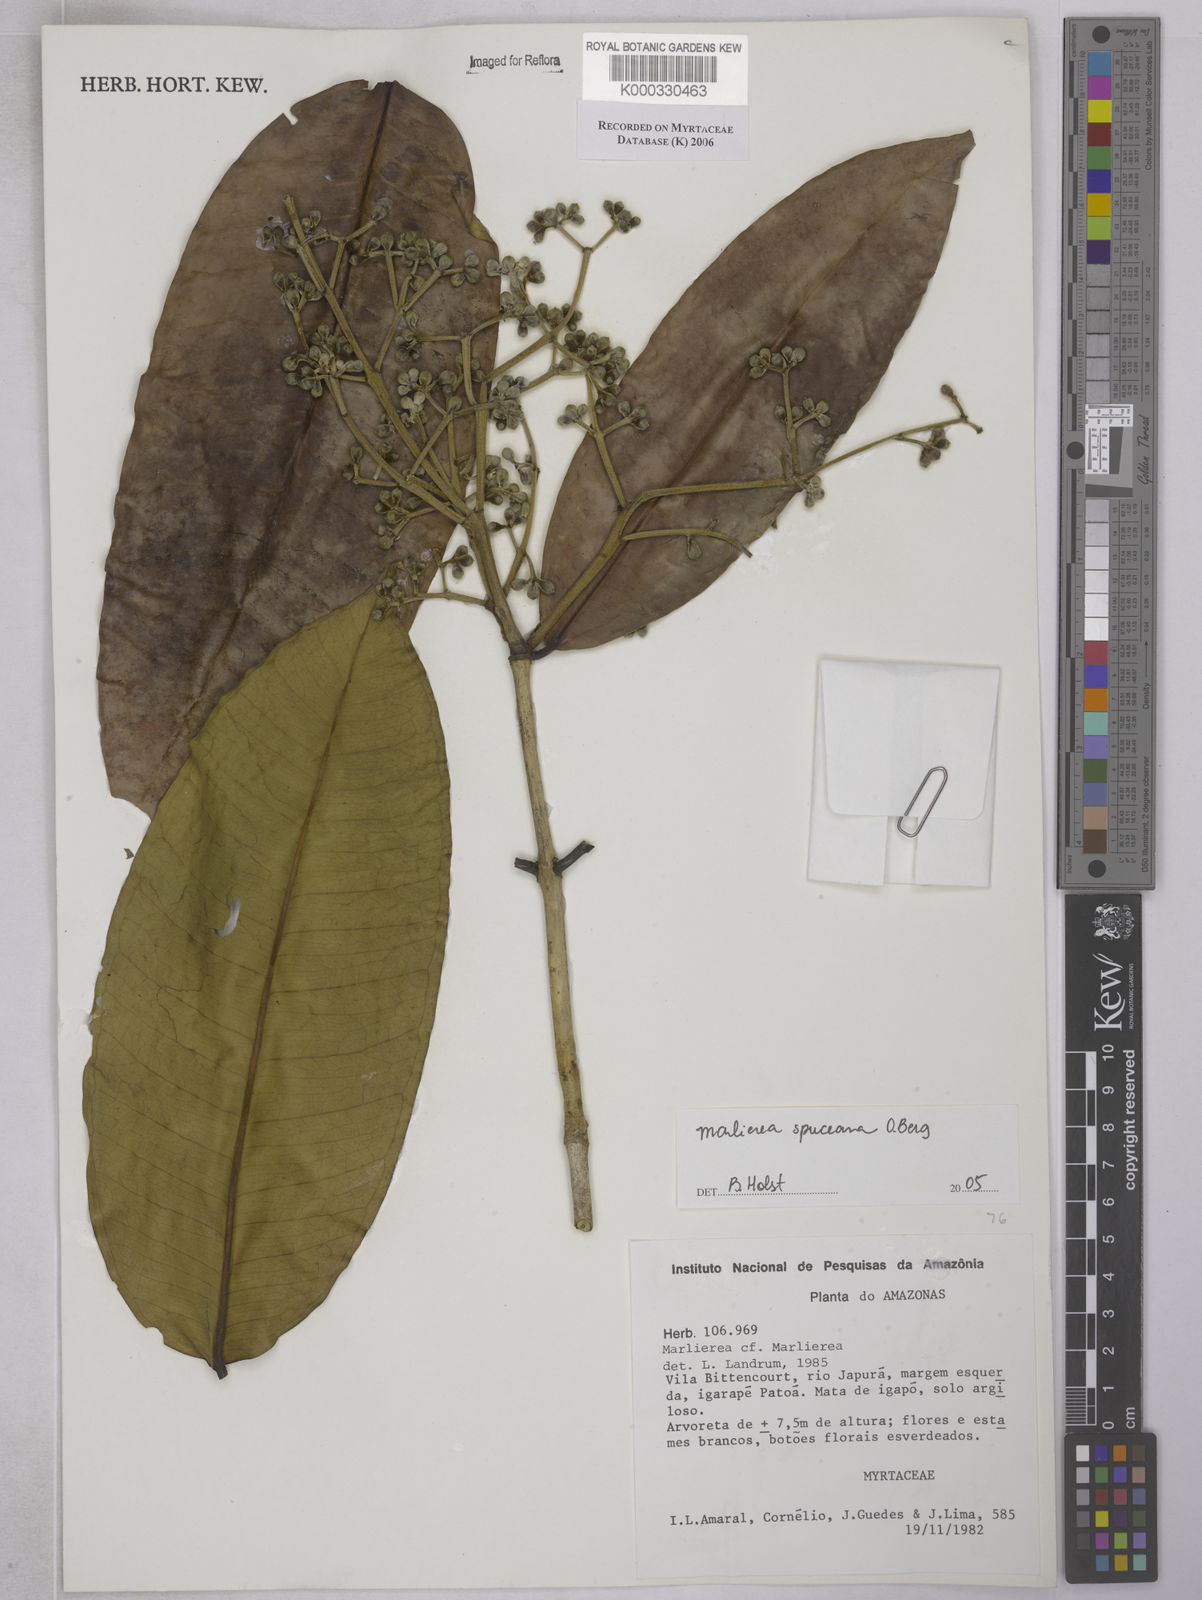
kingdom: Plantae
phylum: Tracheophyta
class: Magnoliopsida
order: Myrtales
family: Myrtaceae
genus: Myrcia
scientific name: Myrcia argentigemma
